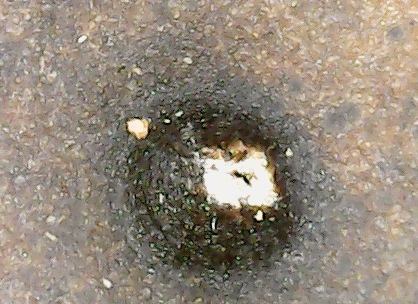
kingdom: Fungi
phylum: Ascomycota
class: Leotiomycetes
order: Phacidiales
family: Phacidiaceae
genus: Phacidium
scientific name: Phacidium lauri
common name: kristtorn-tandskive
